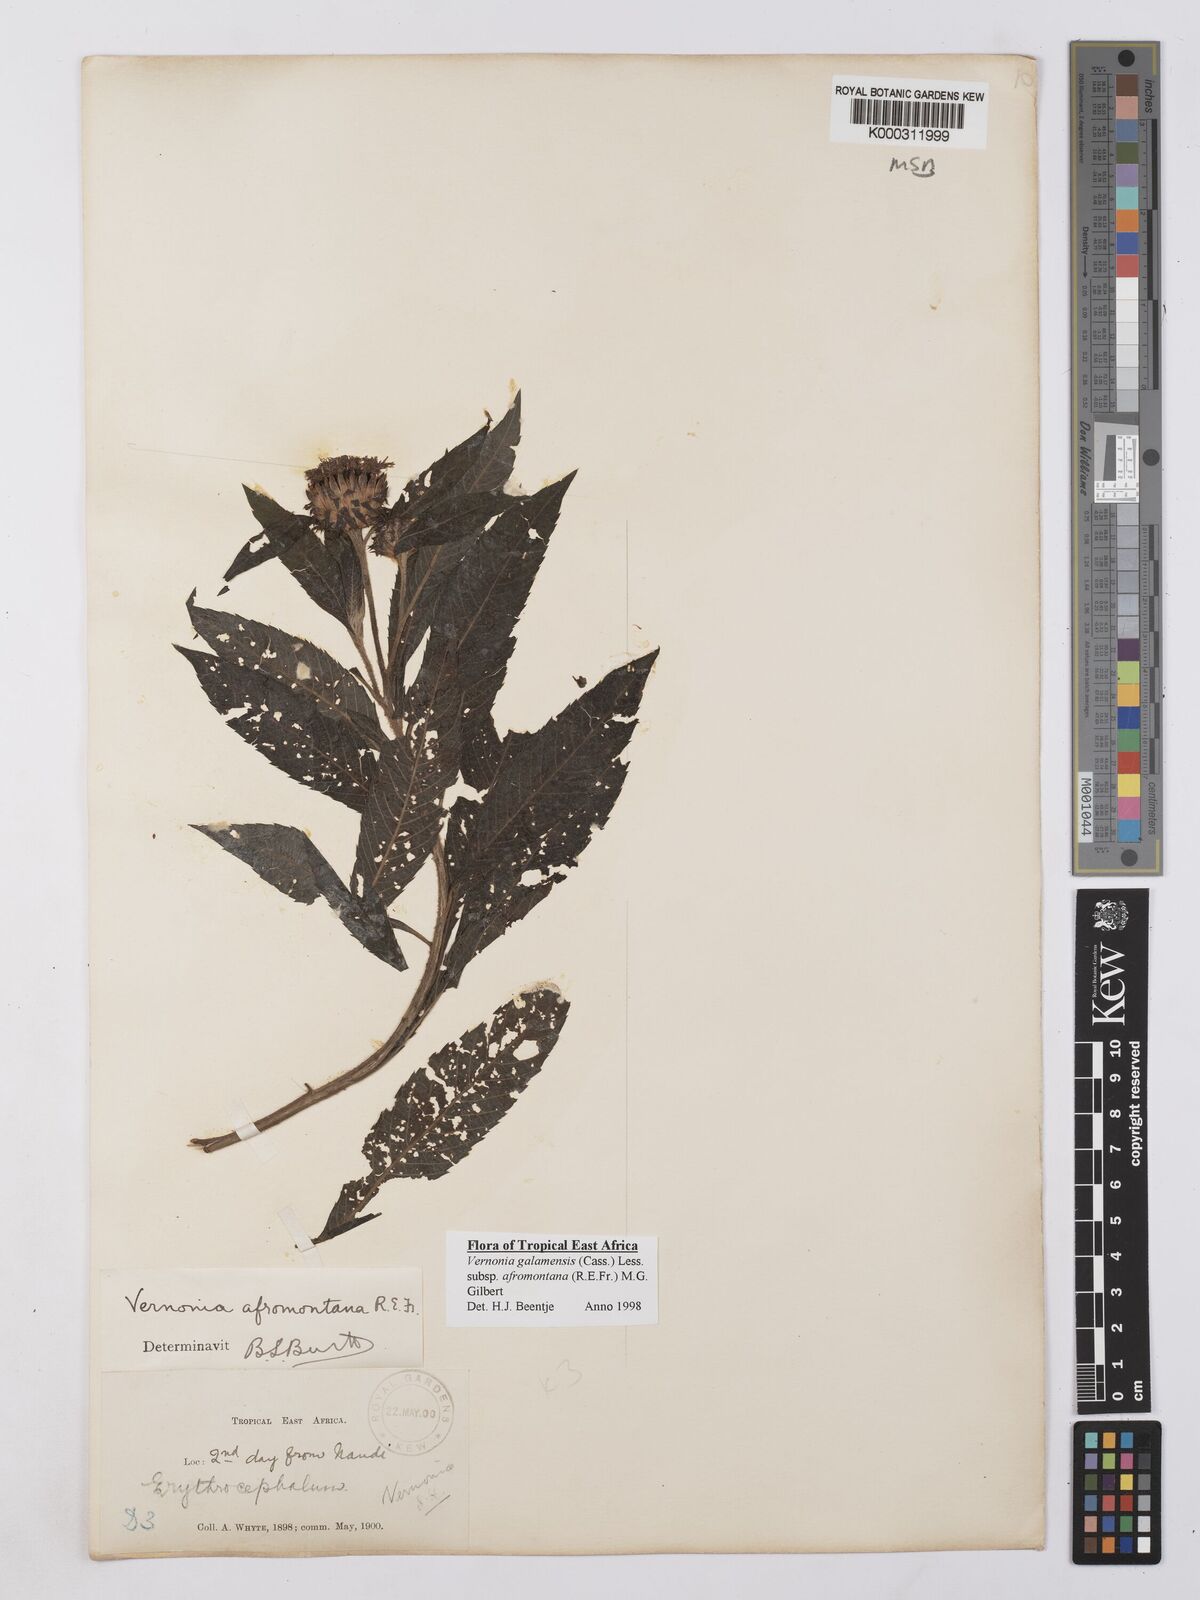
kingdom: Plantae
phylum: Tracheophyta
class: Magnoliopsida
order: Asterales
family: Asteraceae
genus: Vernonia
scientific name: Vernonia galamensis
